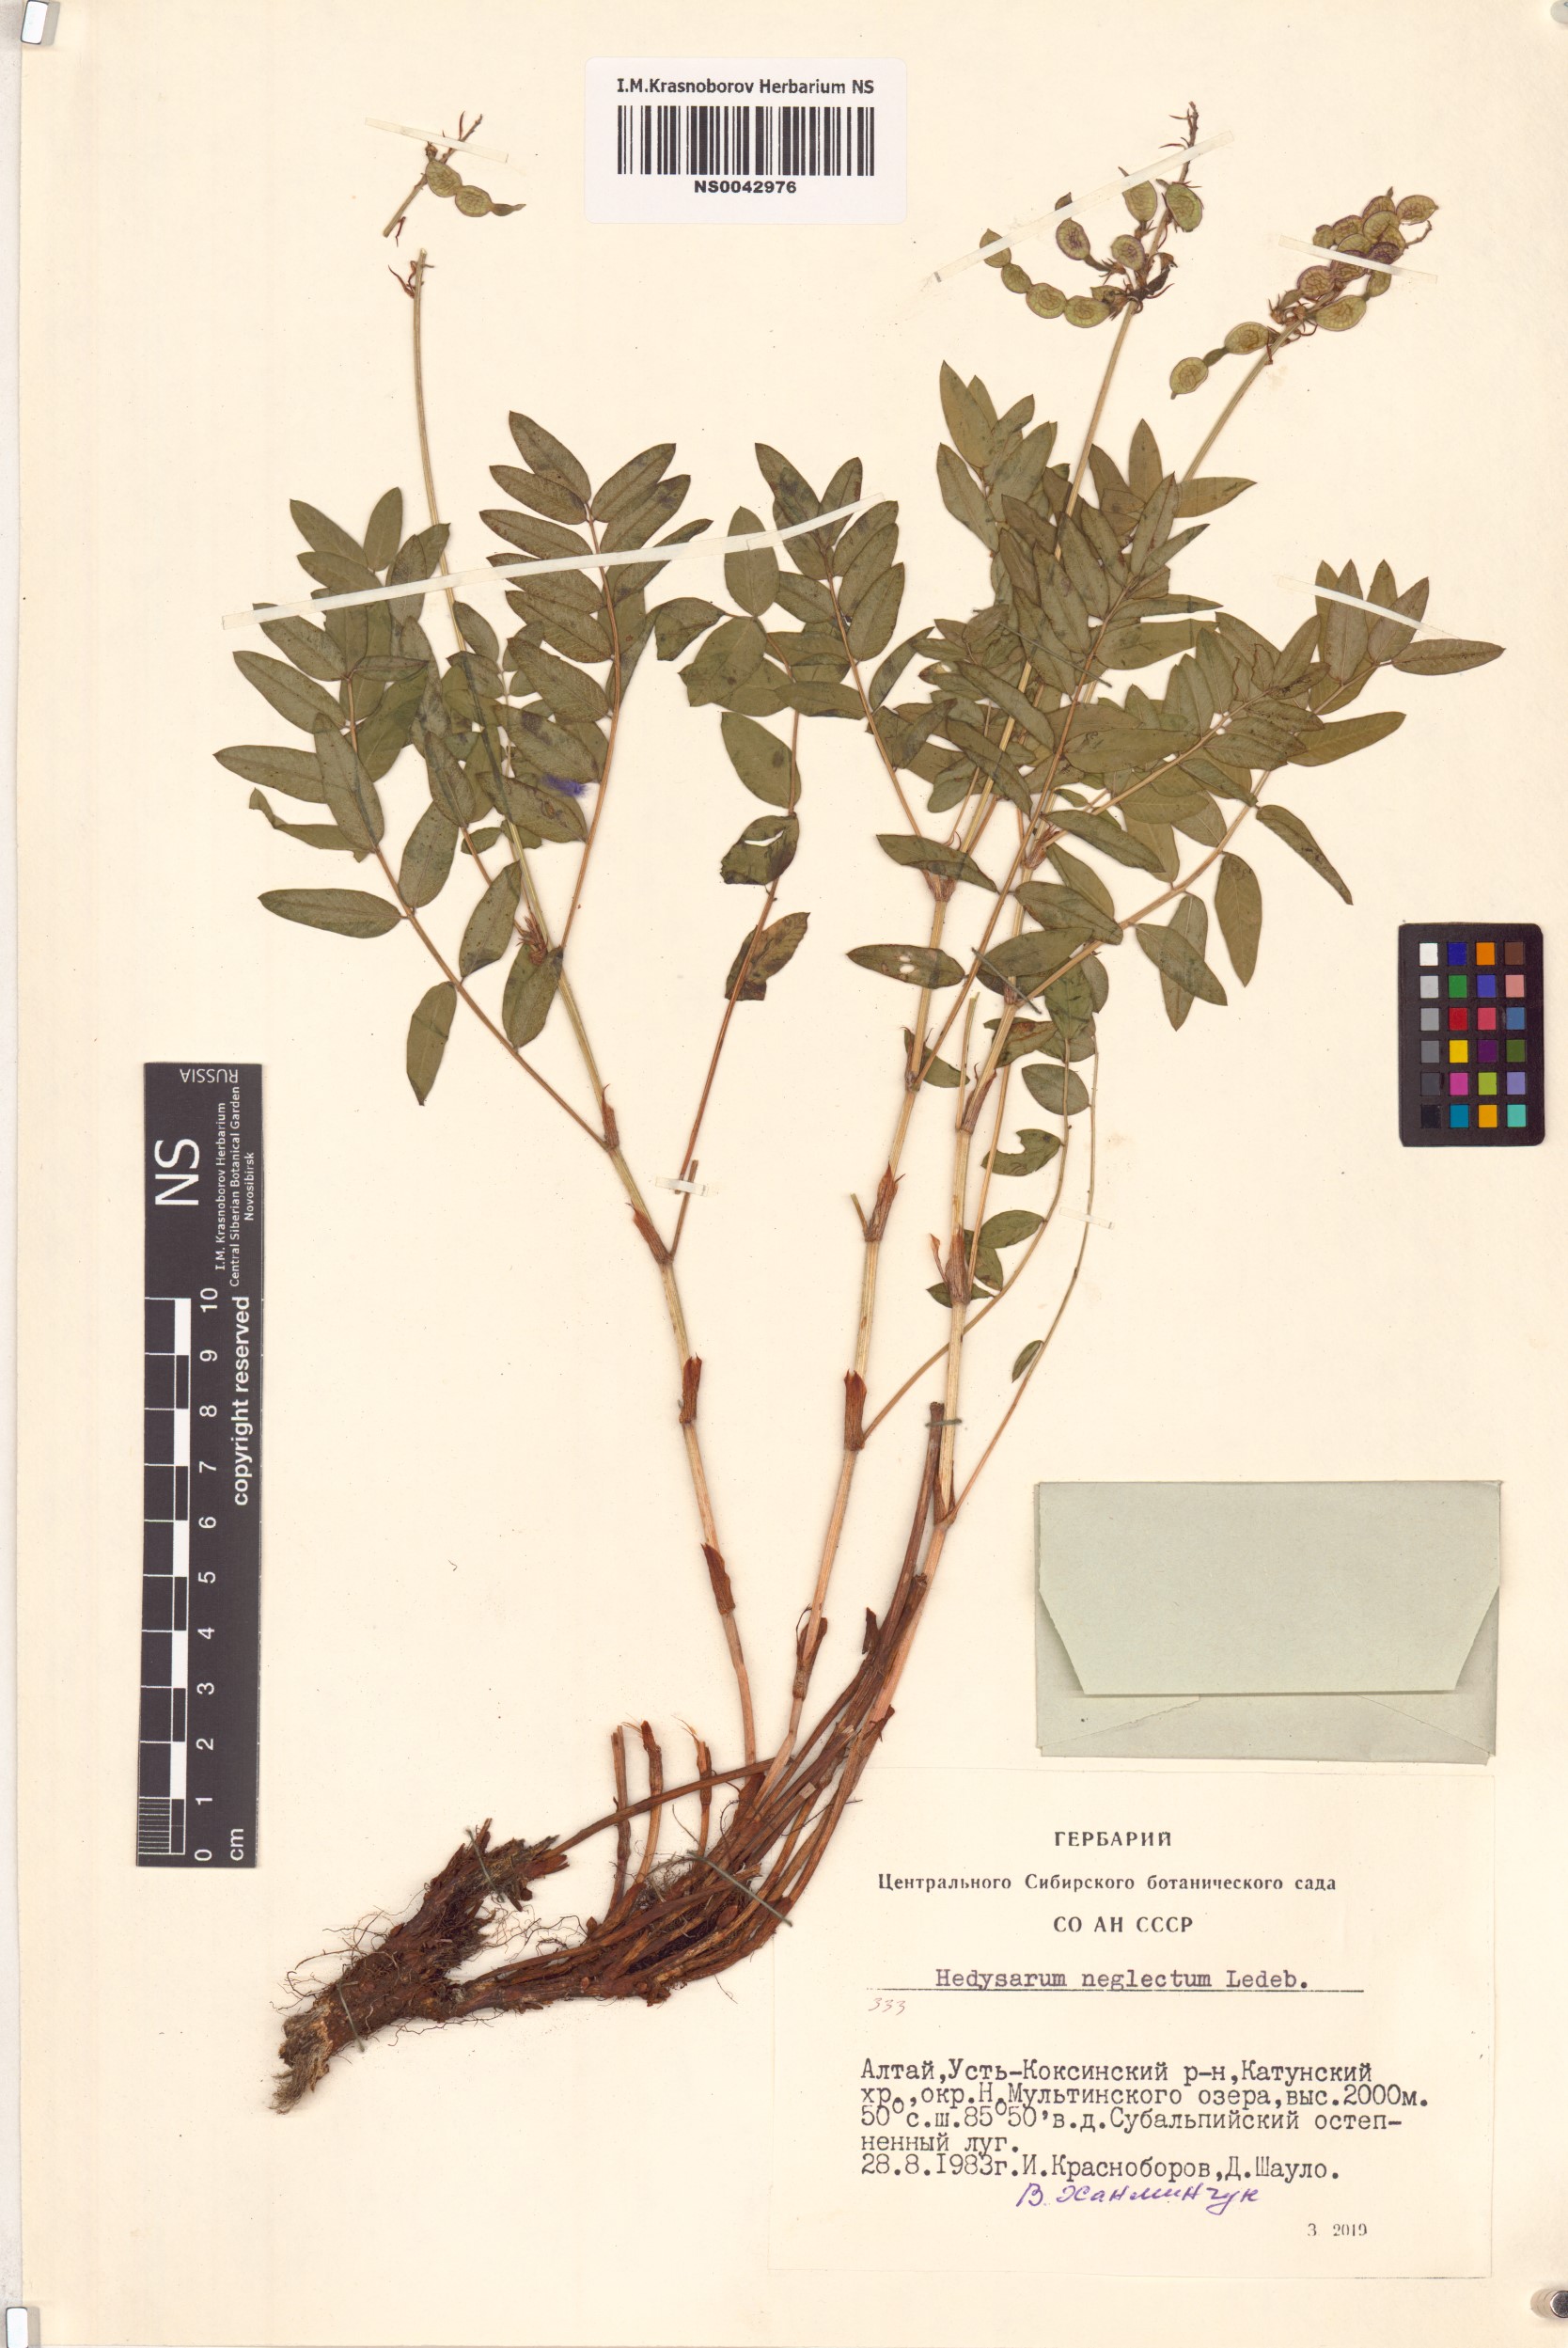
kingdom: Plantae
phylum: Tracheophyta
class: Magnoliopsida
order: Fabales
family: Fabaceae
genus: Hedysarum
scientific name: Hedysarum neglectum
